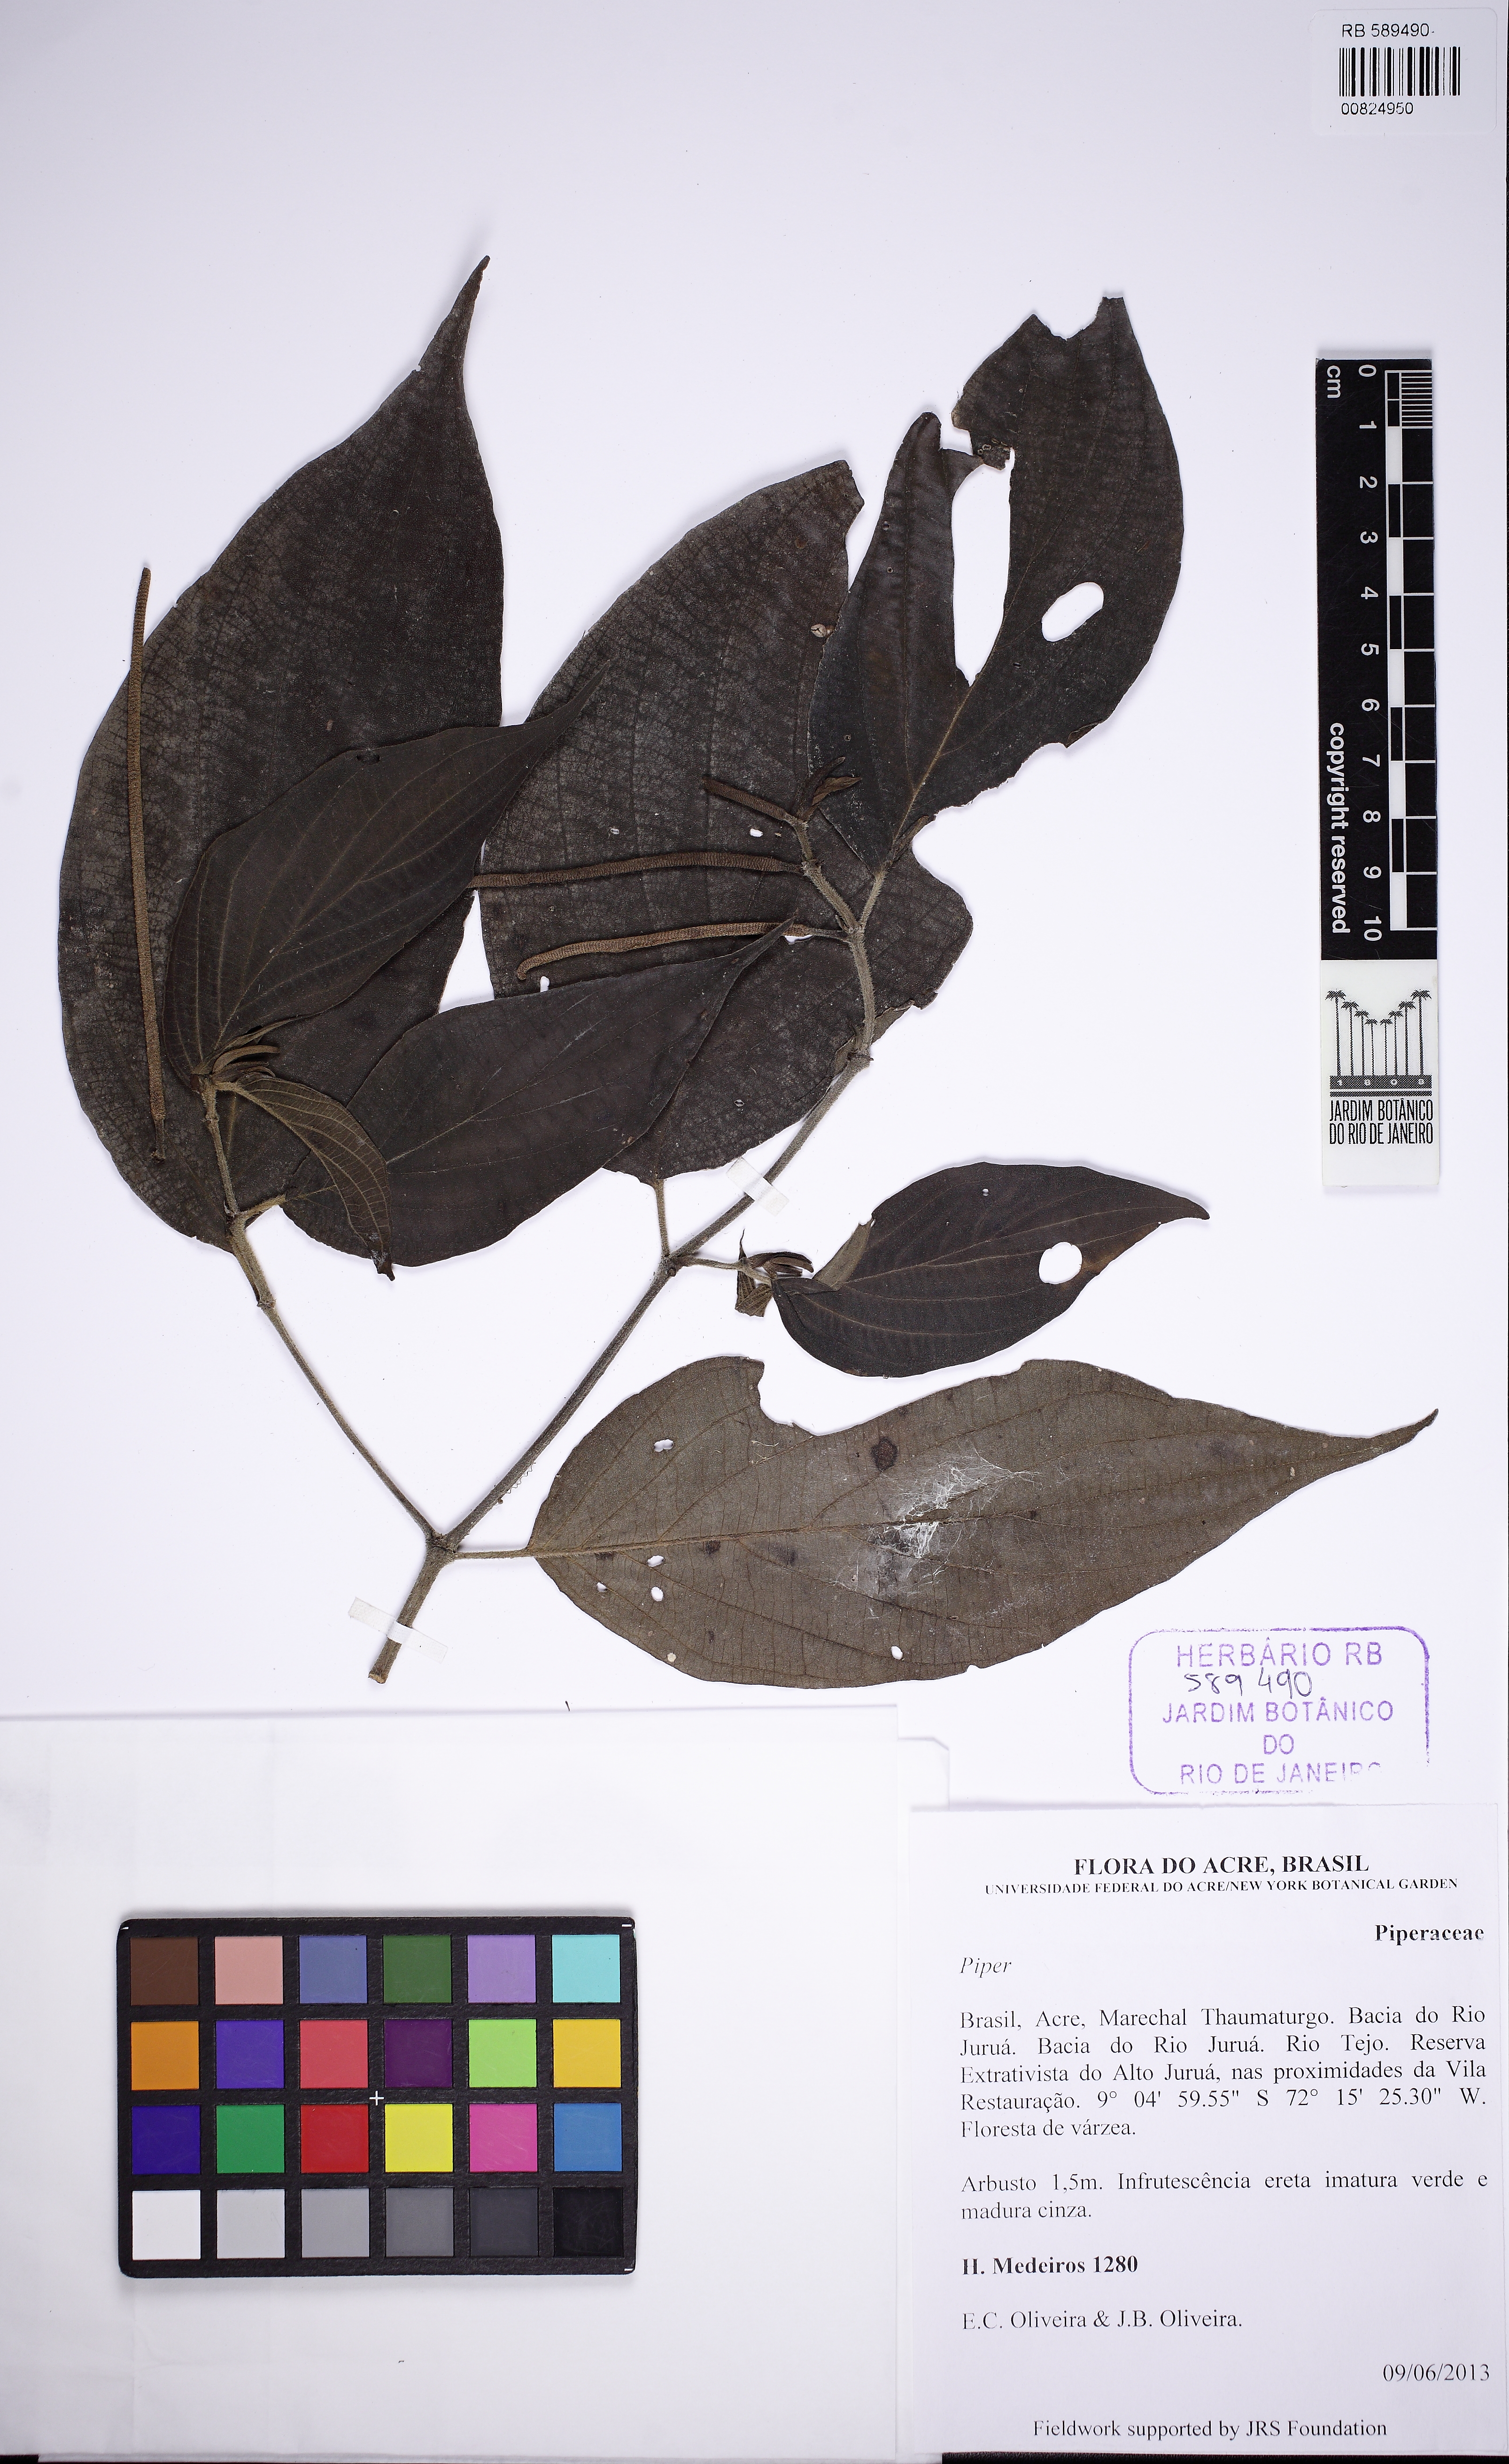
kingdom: Plantae
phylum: Tracheophyta
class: Magnoliopsida
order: Piperales
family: Piperaceae
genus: Piper
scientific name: Piper
